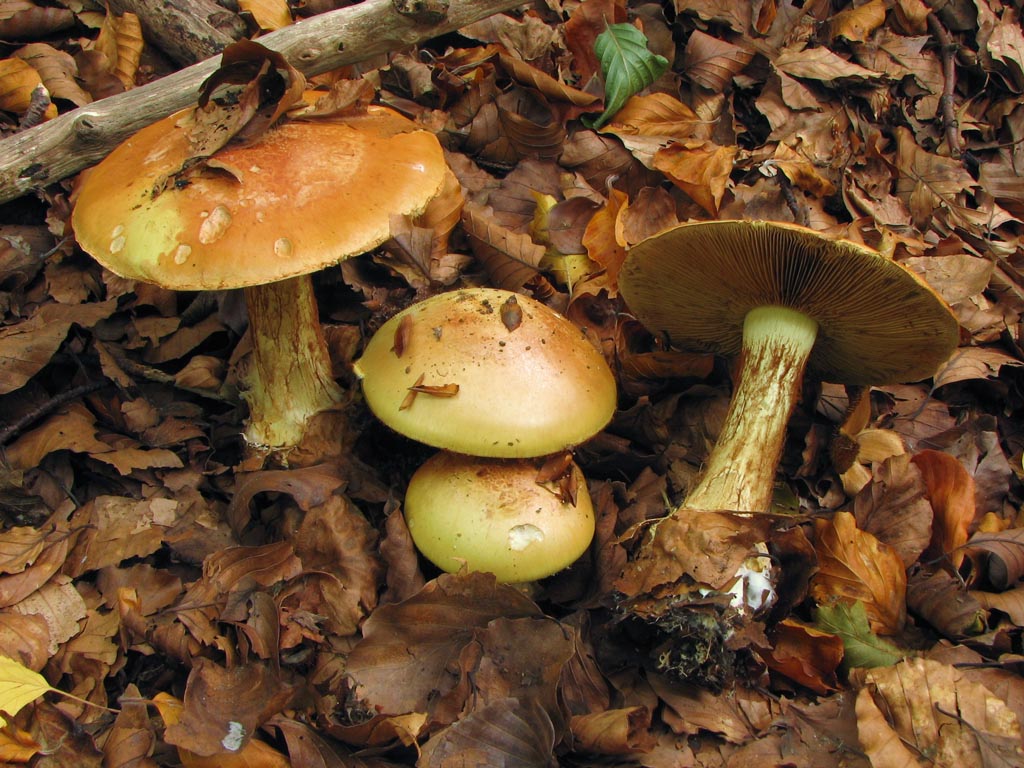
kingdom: Fungi
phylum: Basidiomycota
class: Agaricomycetes
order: Agaricales
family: Cortinariaceae
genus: Cortinarius
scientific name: Cortinarius bergeronii
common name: prægtig slørhat
